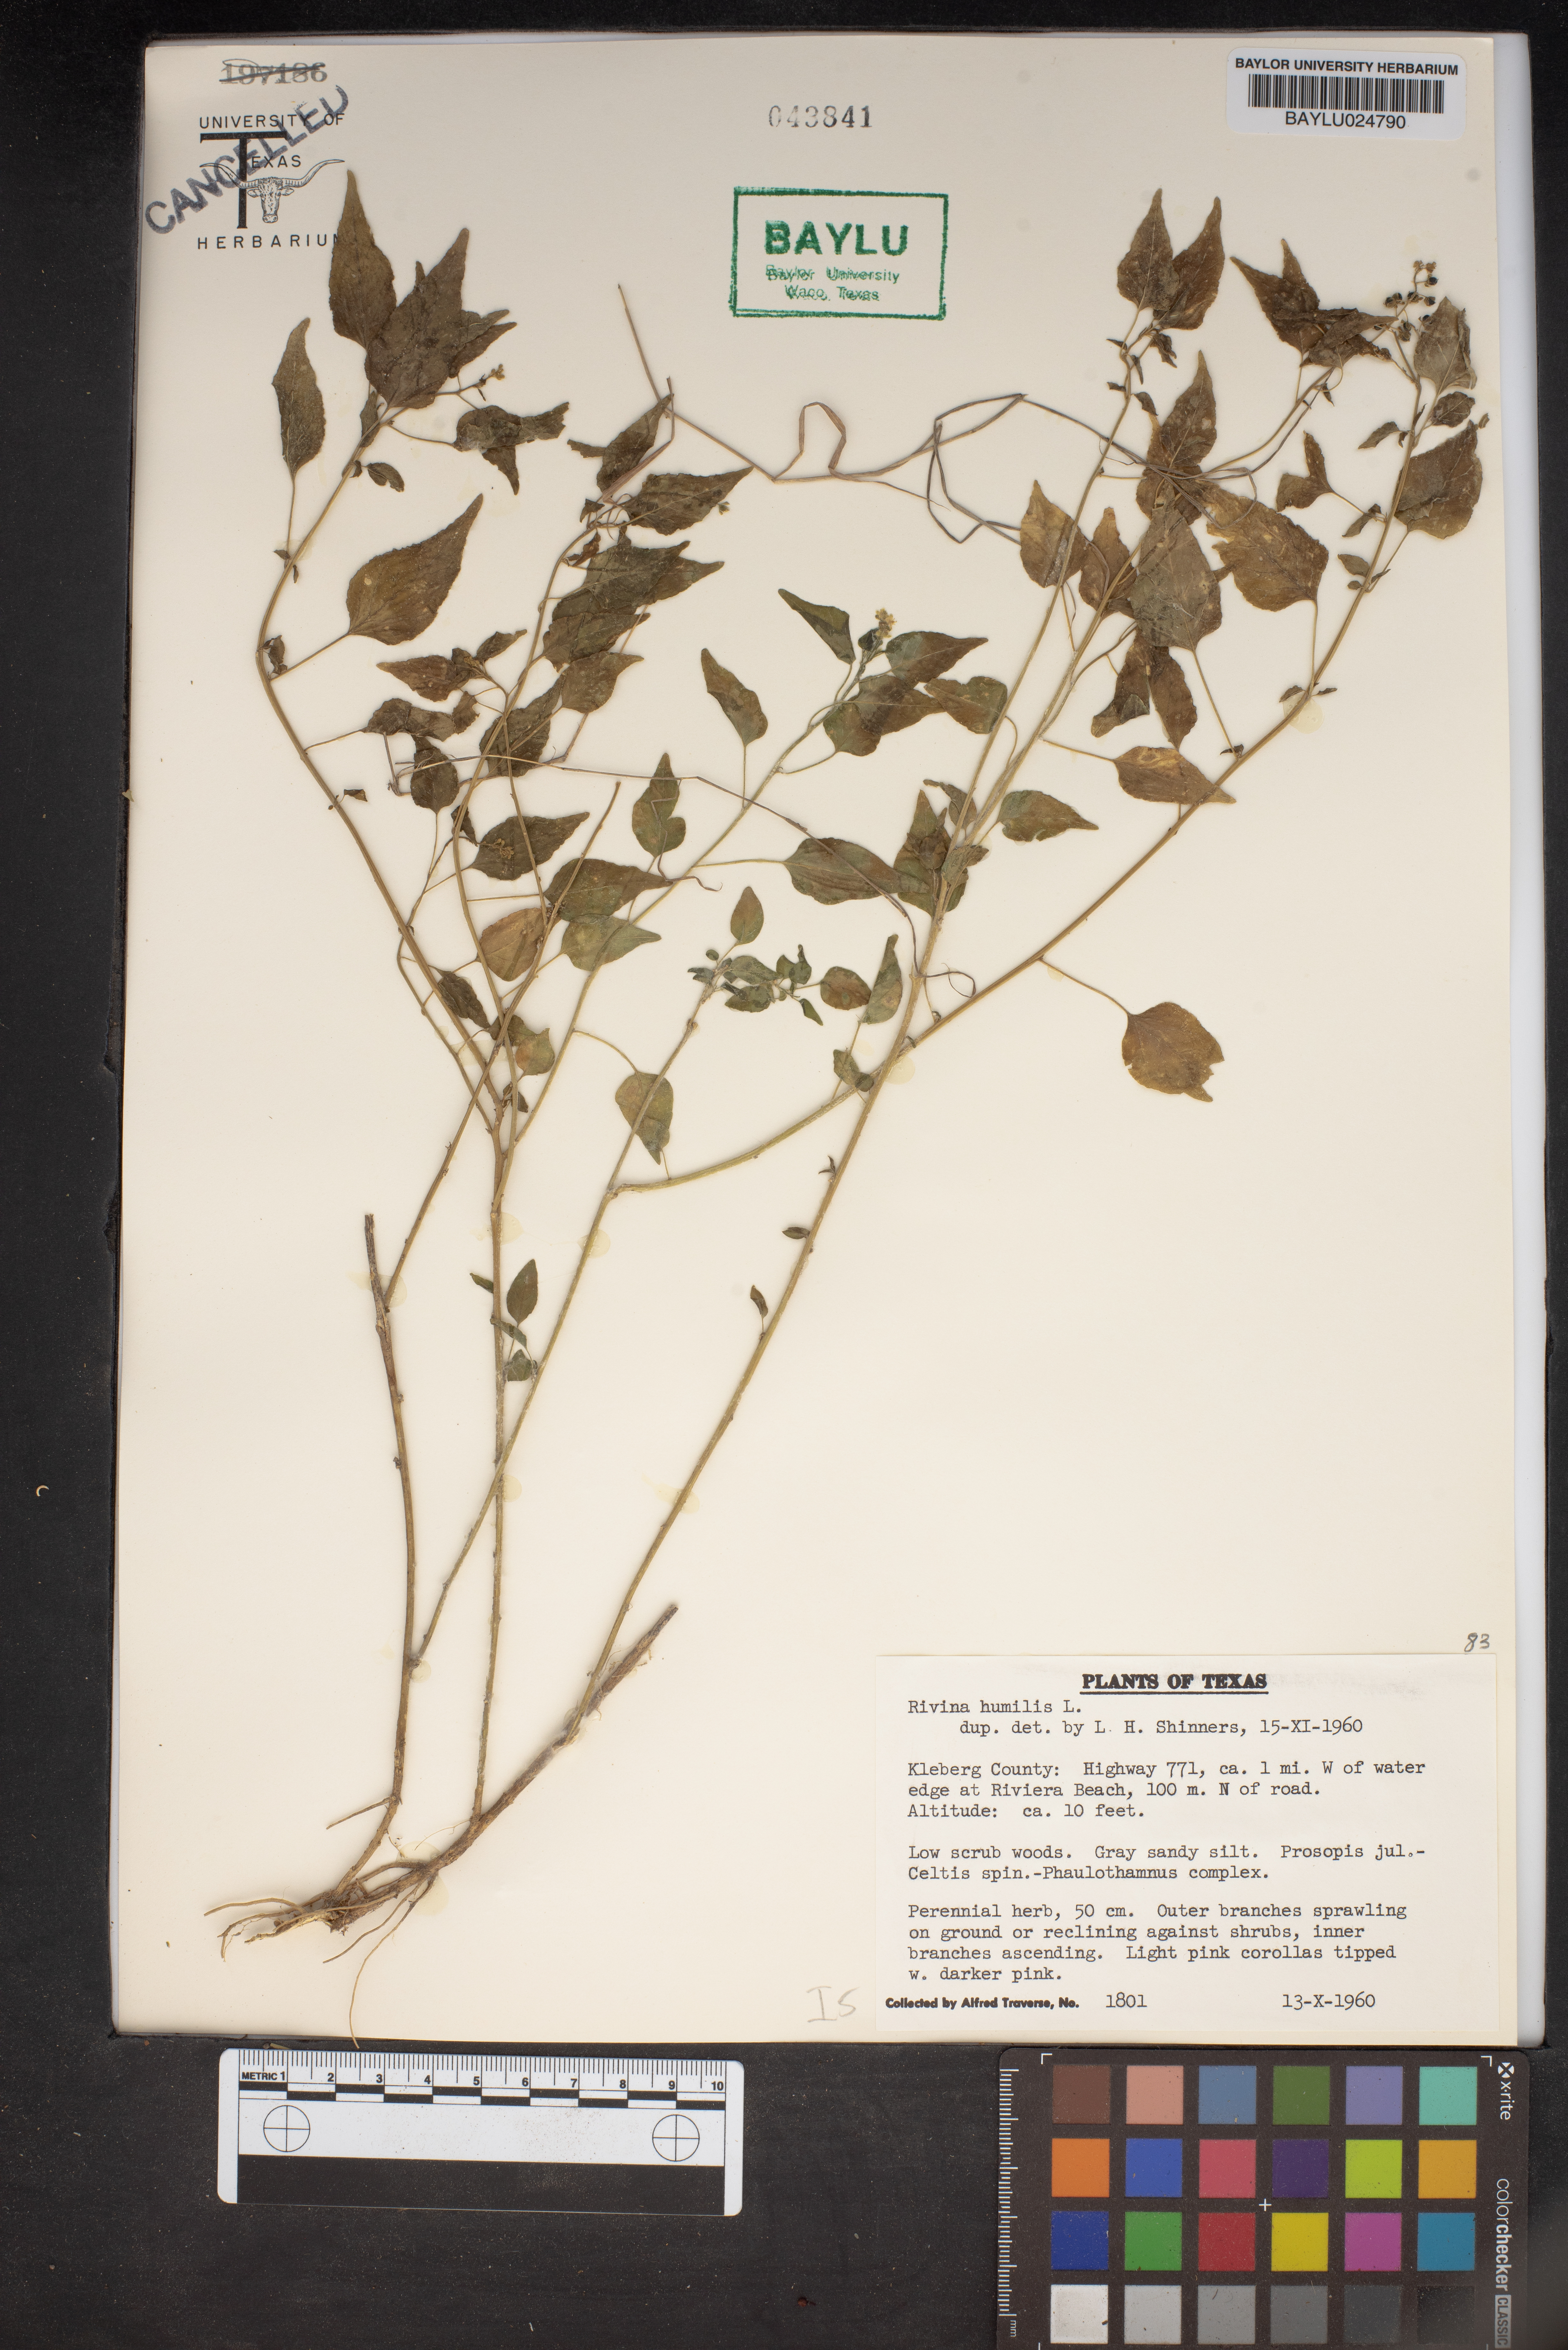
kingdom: Plantae
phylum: Tracheophyta
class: Magnoliopsida
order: Caryophyllales
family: Phytolaccaceae
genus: Rivina
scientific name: Rivina humilis
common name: Rougeplant
